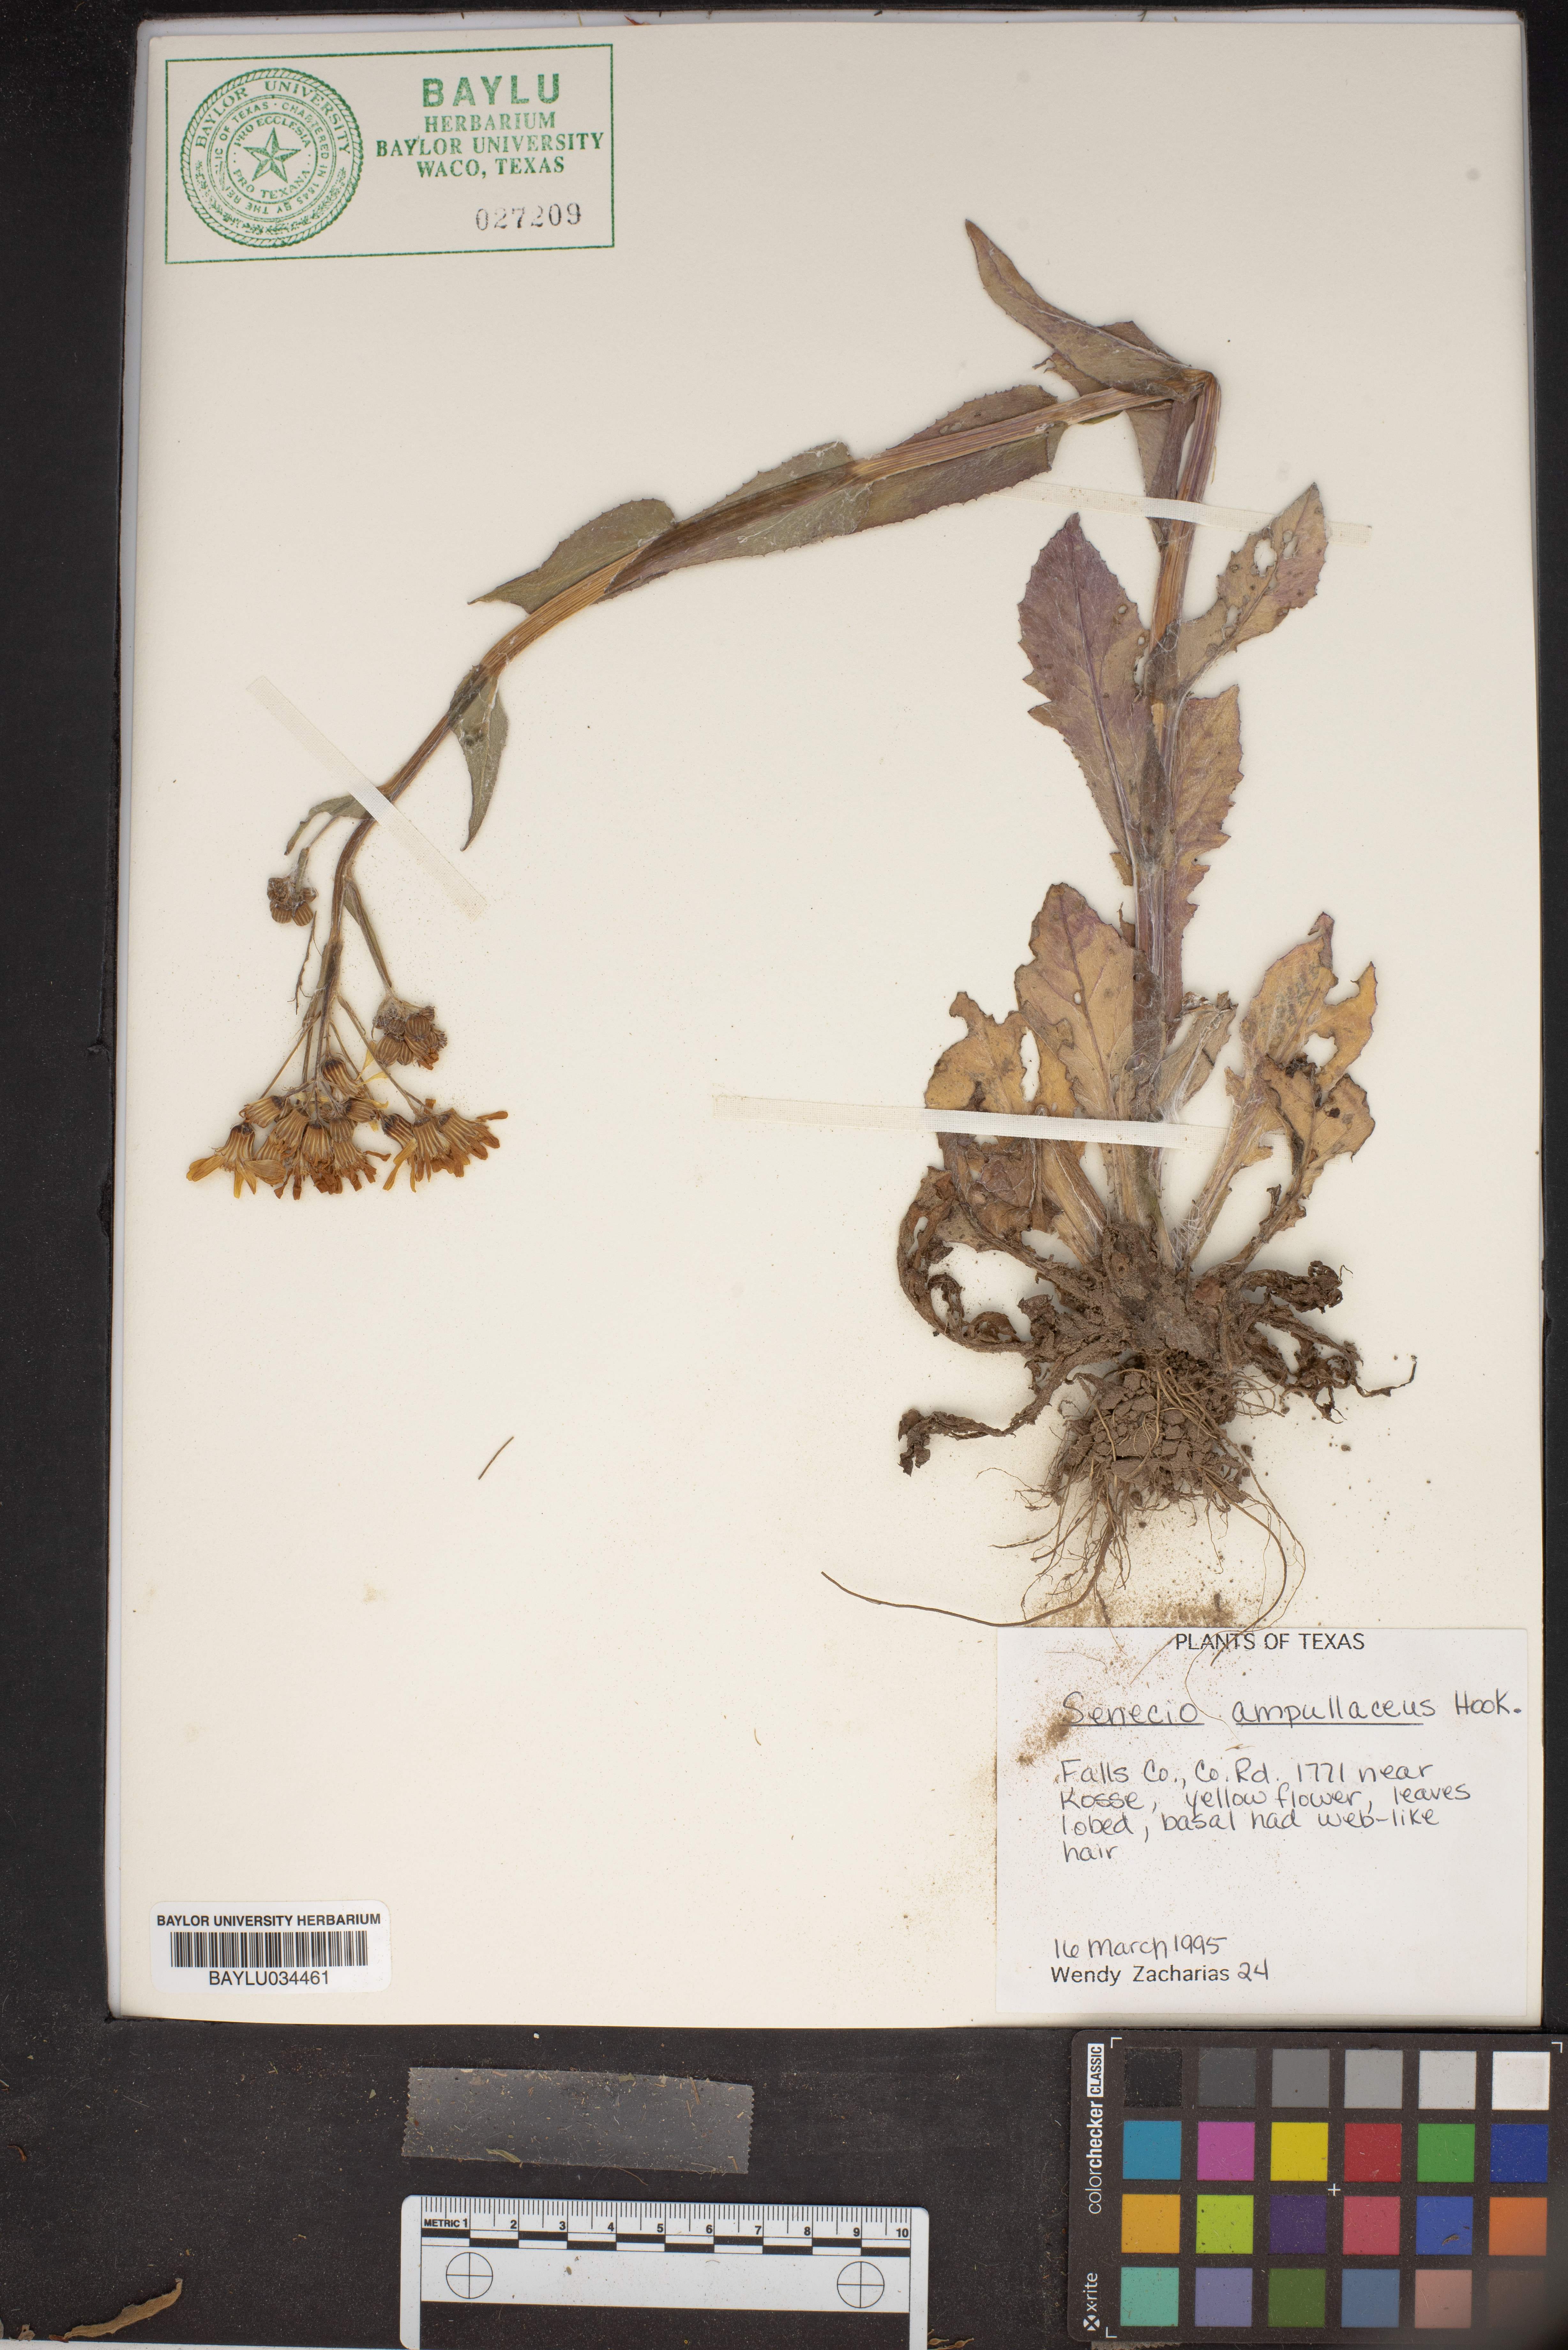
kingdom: Plantae
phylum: Tracheophyta
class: Magnoliopsida
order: Asterales
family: Asteraceae
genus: Senecio
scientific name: Senecio ampullaceus
